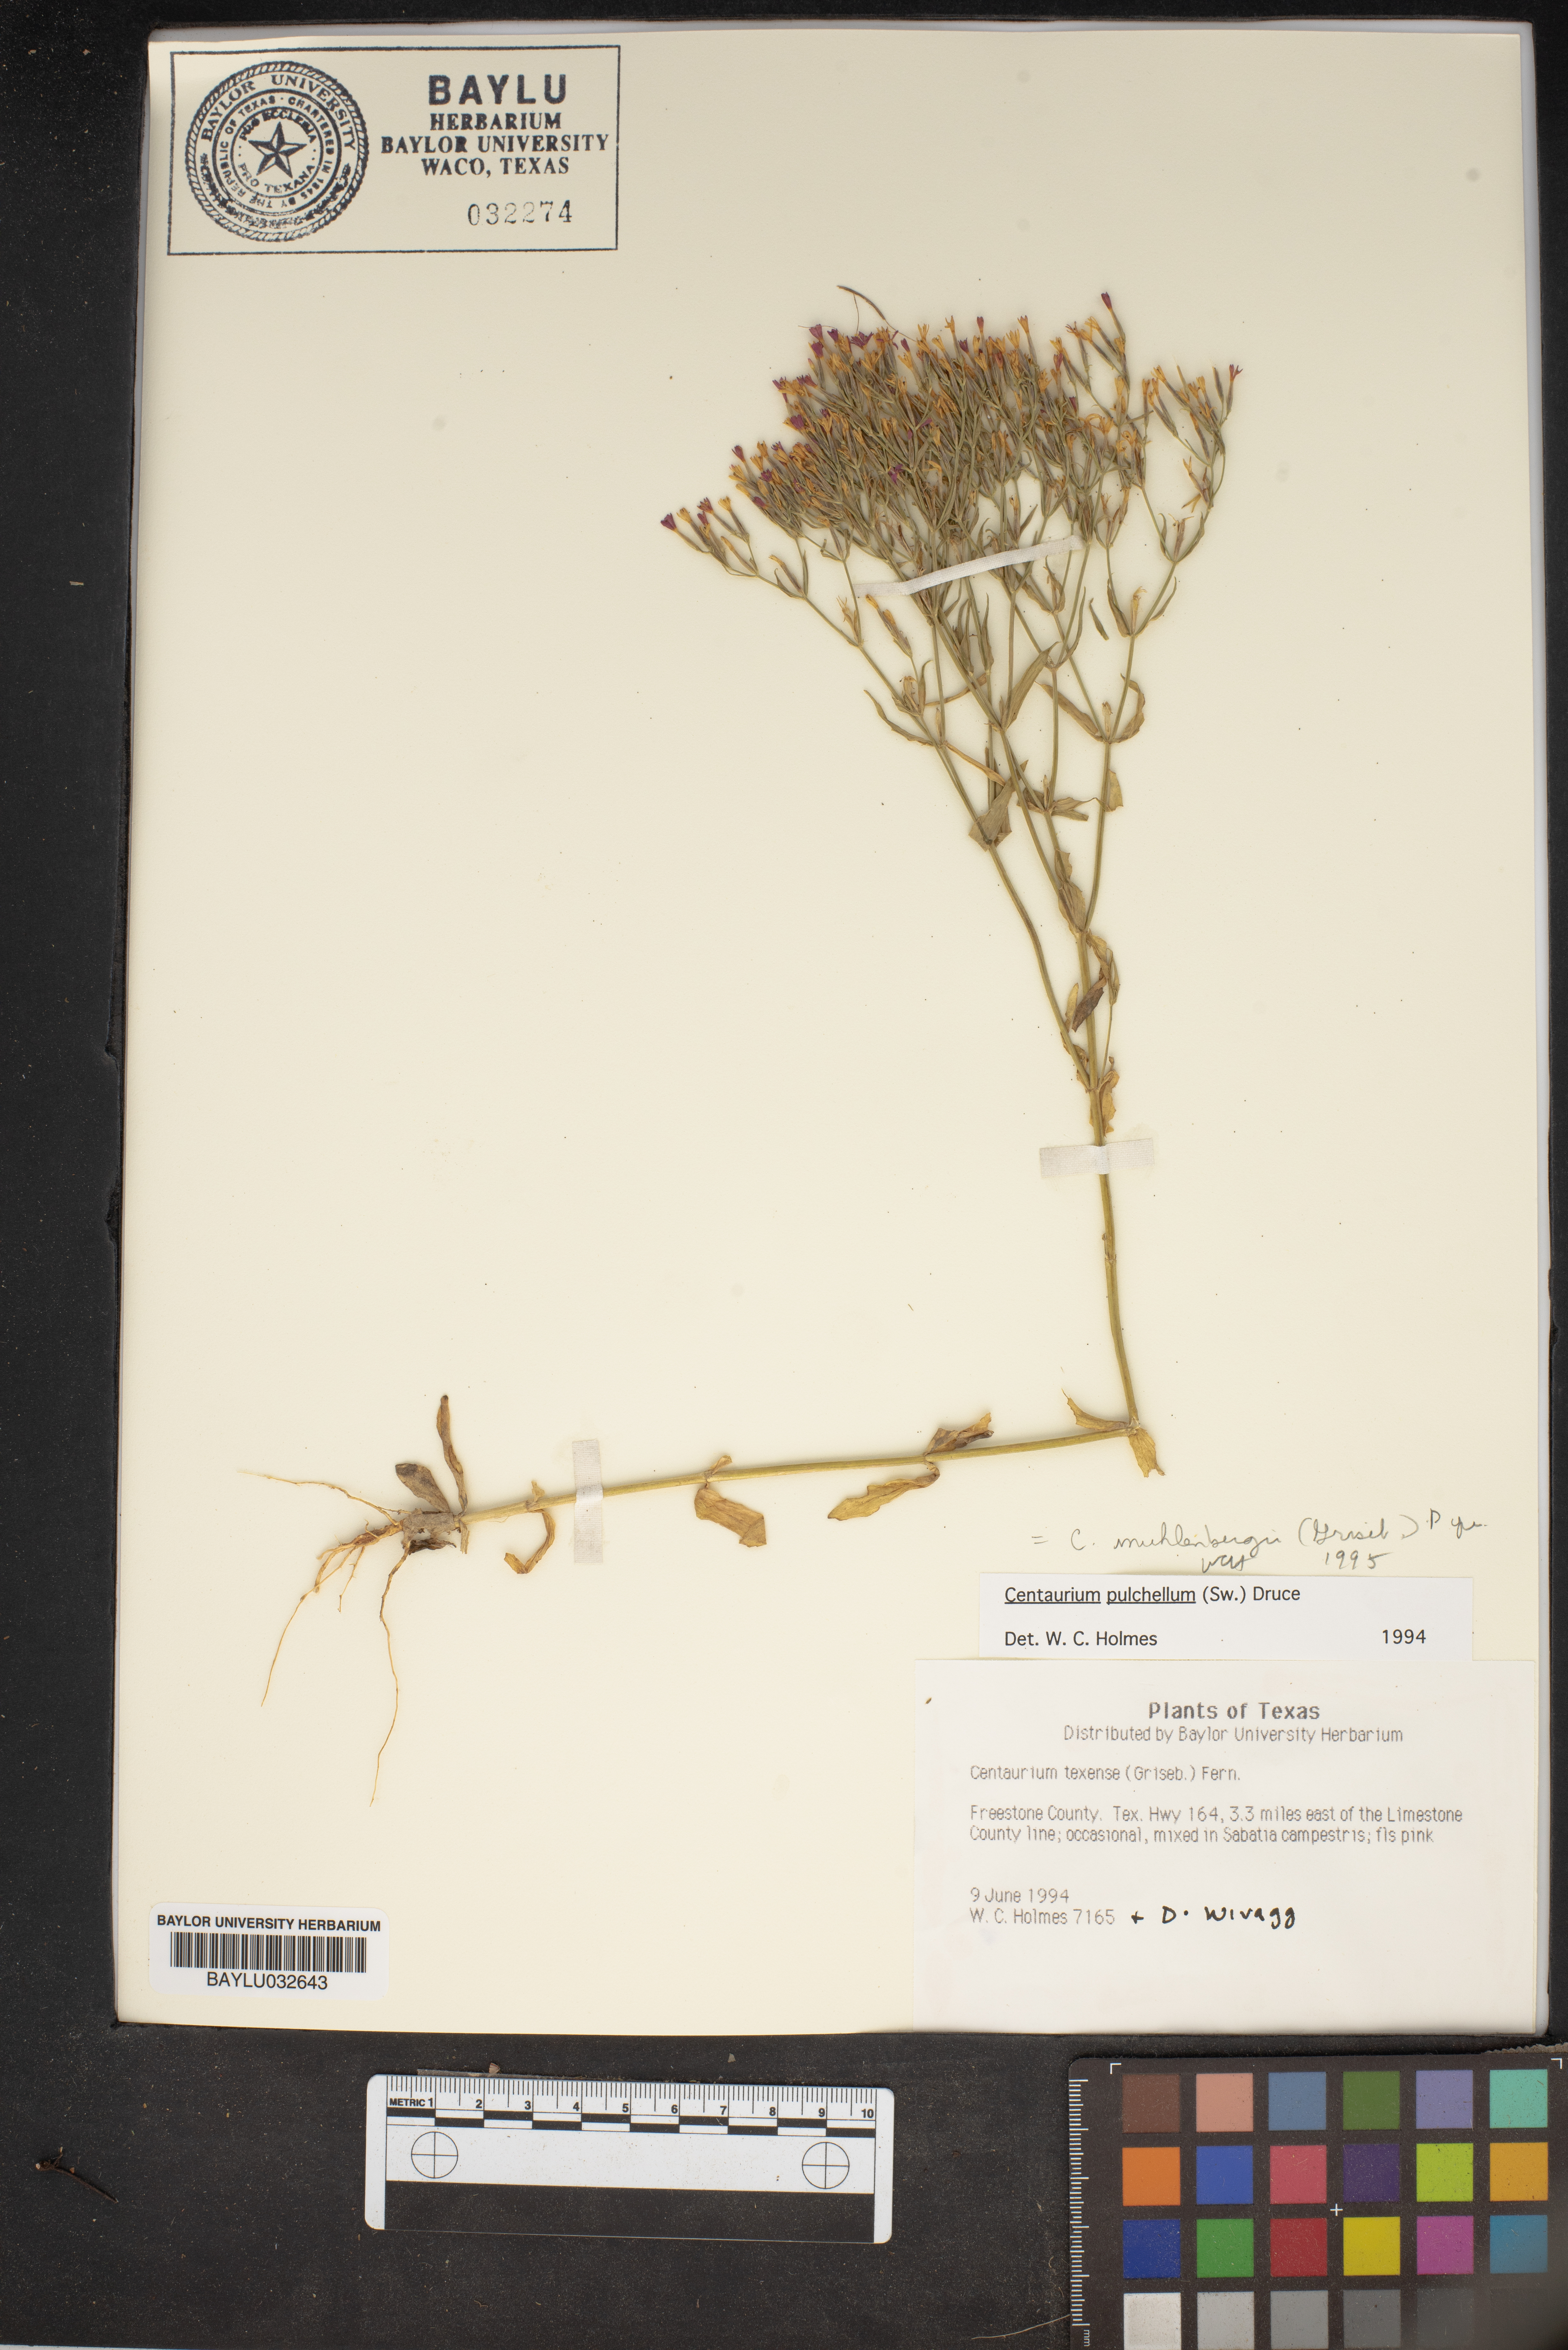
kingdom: Plantae
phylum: Tracheophyta
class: Magnoliopsida
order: Gentianales
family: Gentianaceae
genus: Zeltnera
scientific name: Zeltnera texensis
